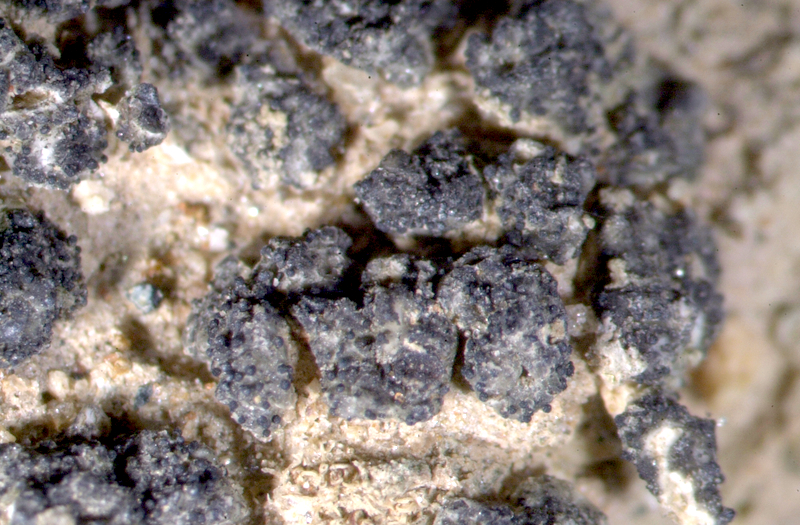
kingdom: Fungi
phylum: Ascomycota
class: Lecanoromycetes
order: Lecanorales
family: Ramalinaceae
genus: Bibbya
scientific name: Bibbya ruginosa
